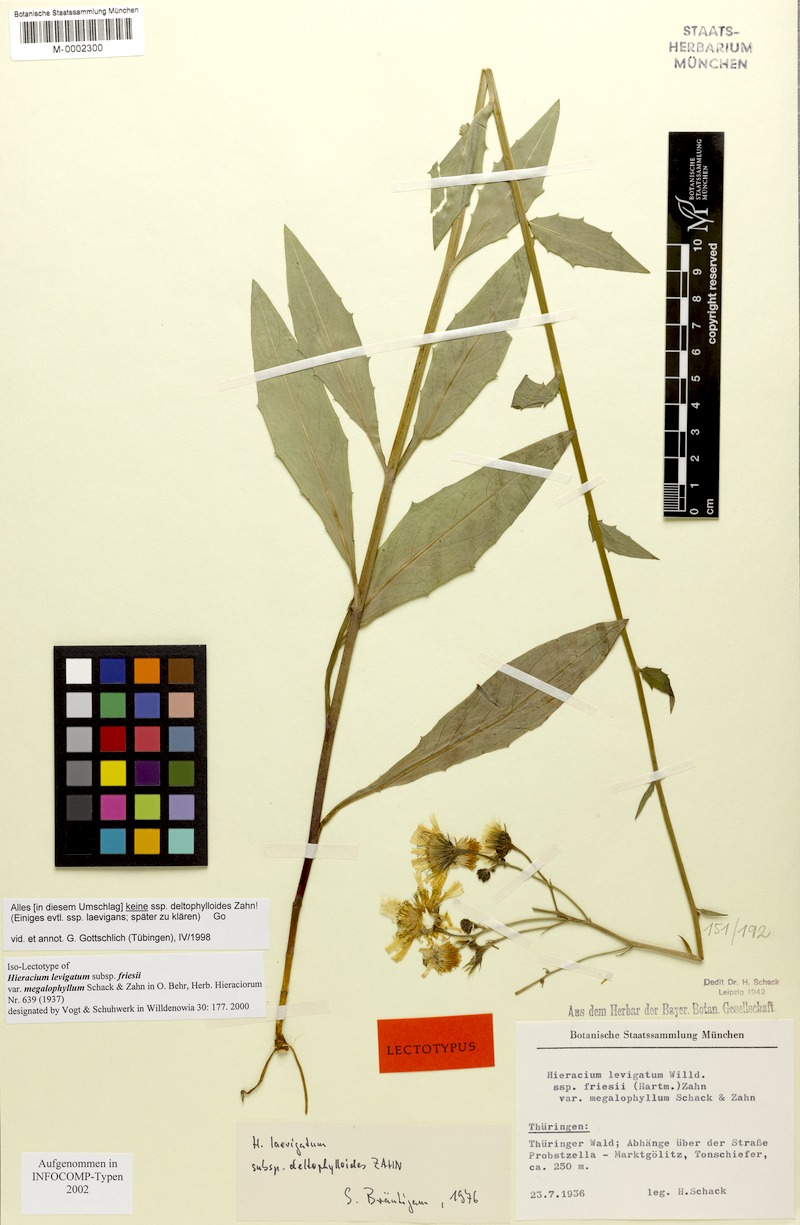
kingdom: Plantae
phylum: Tracheophyta
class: Magnoliopsida
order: Asterales
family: Asteraceae
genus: Hieracium
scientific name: Hieracium laevigatum
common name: Smooth hawkweed
